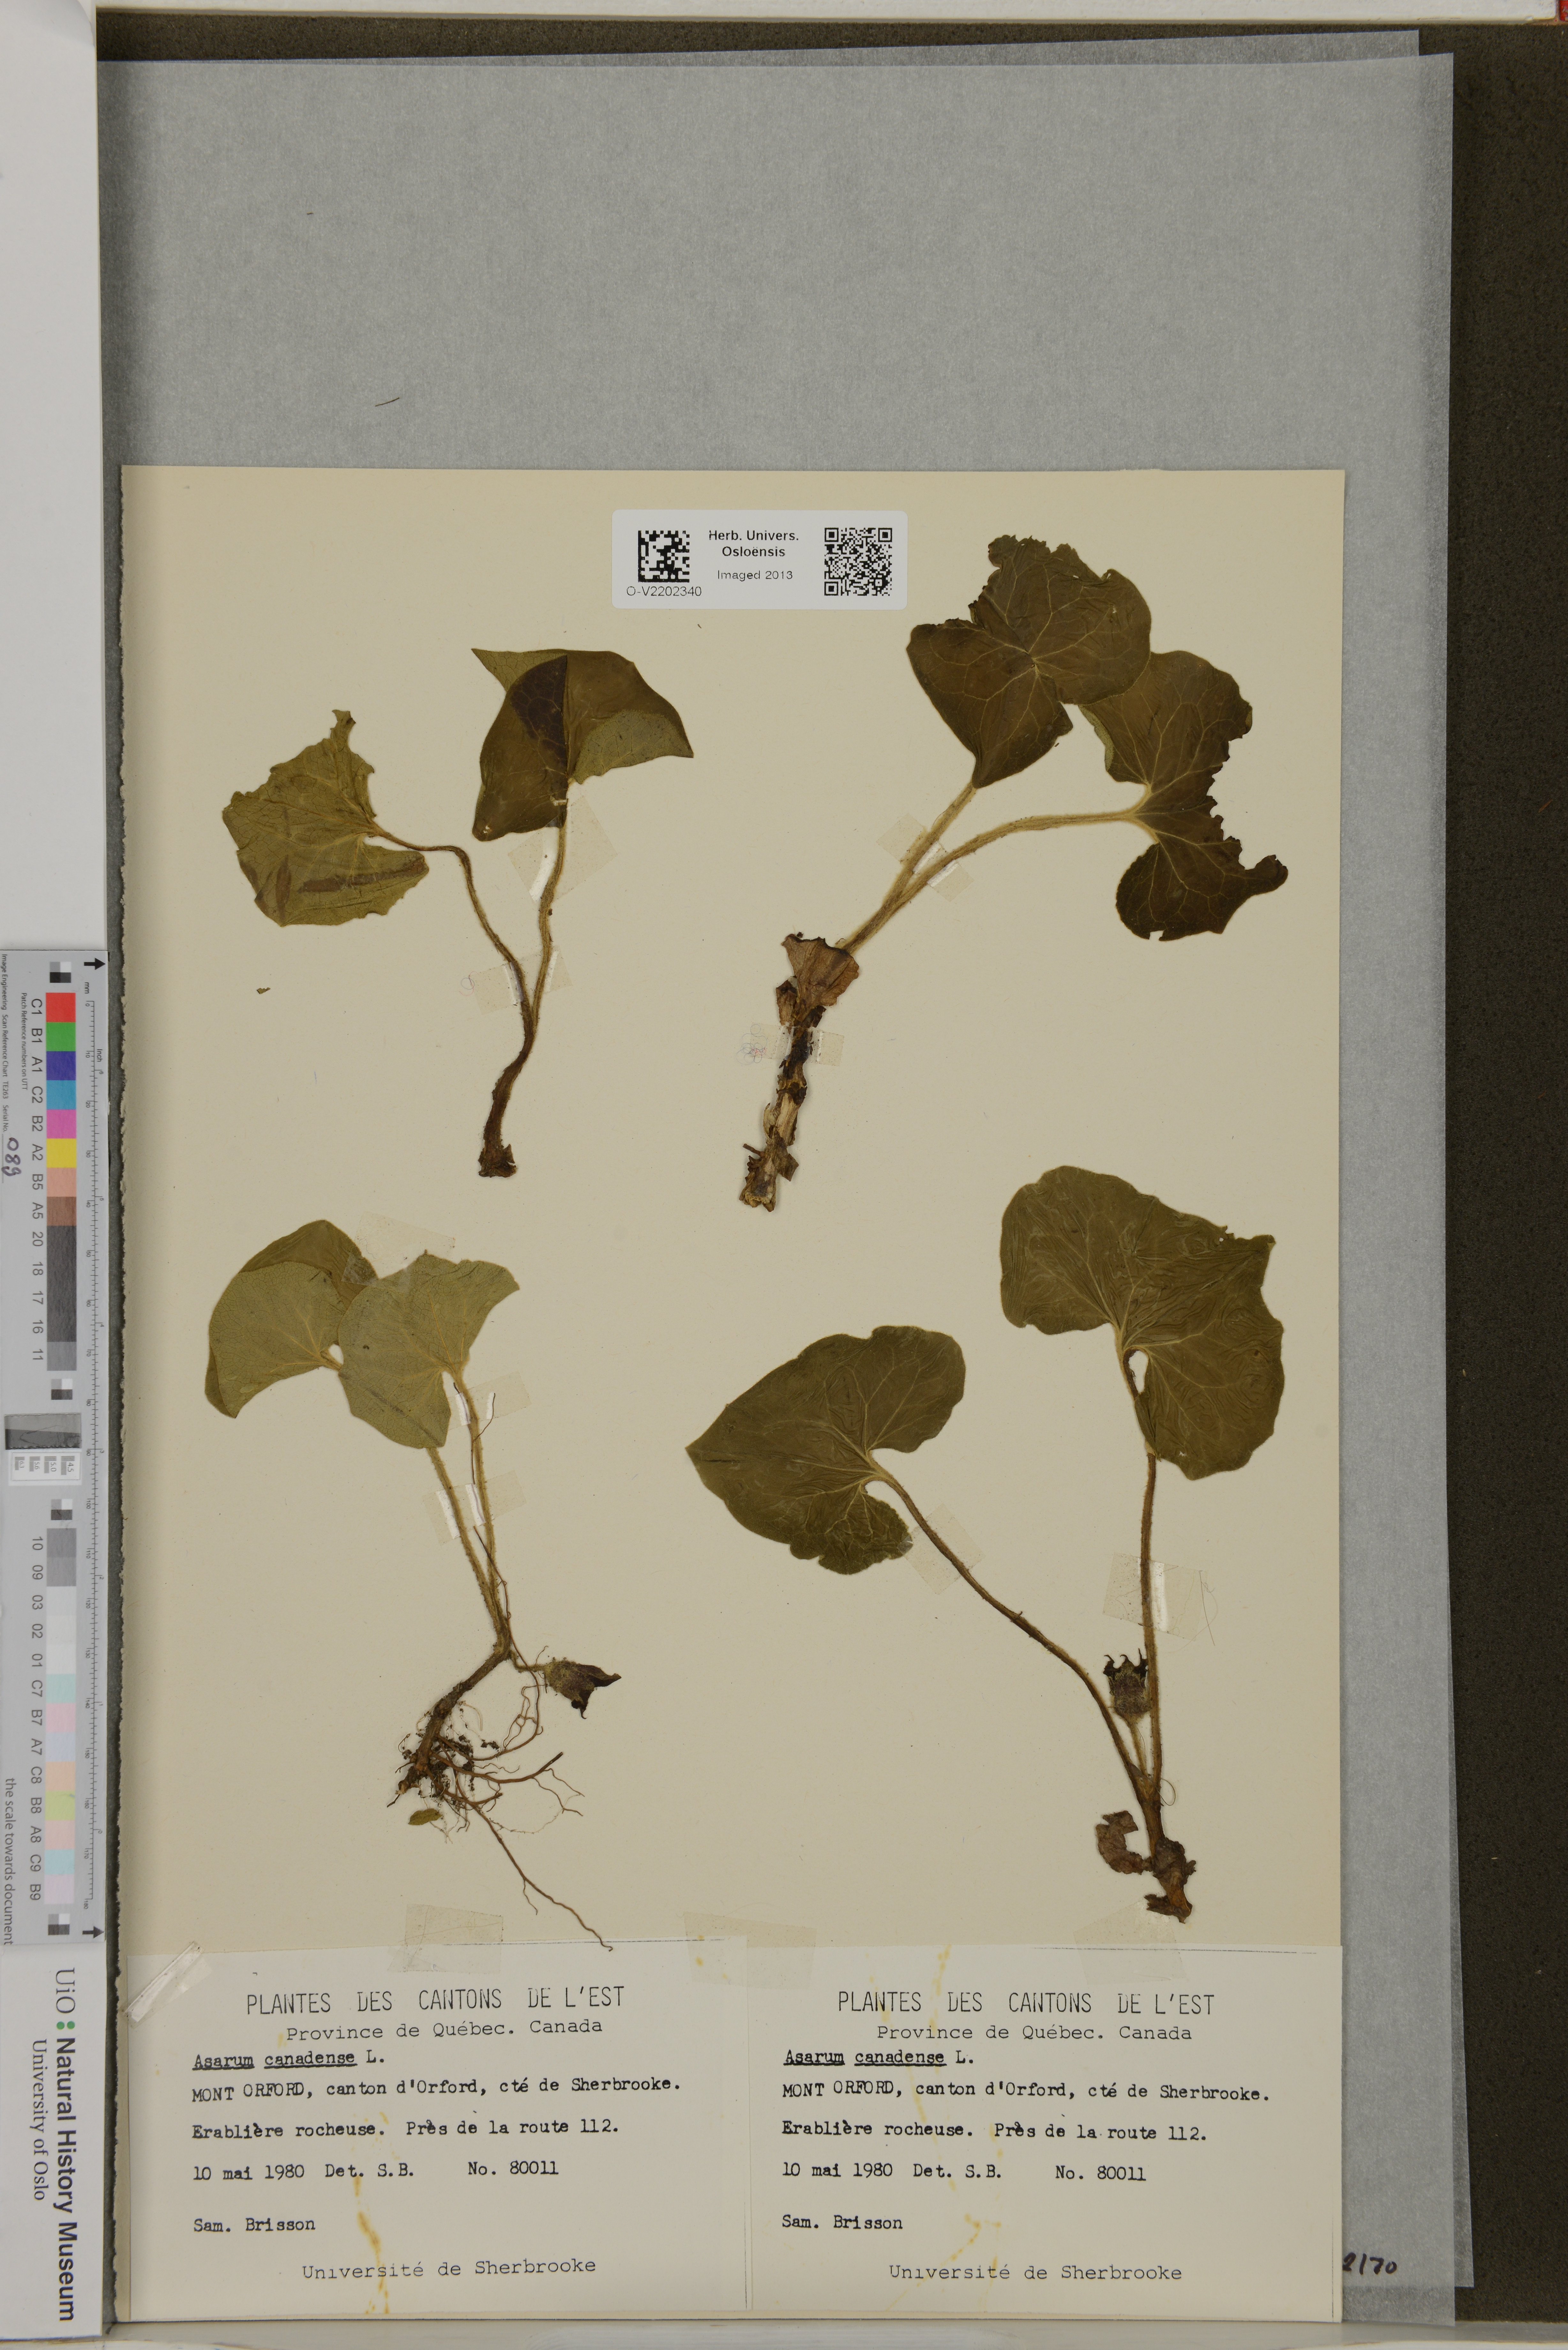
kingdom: Plantae
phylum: Tracheophyta
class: Magnoliopsida
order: Piperales
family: Aristolochiaceae
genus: Asarum
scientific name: Asarum canadense
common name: Wild ginger
